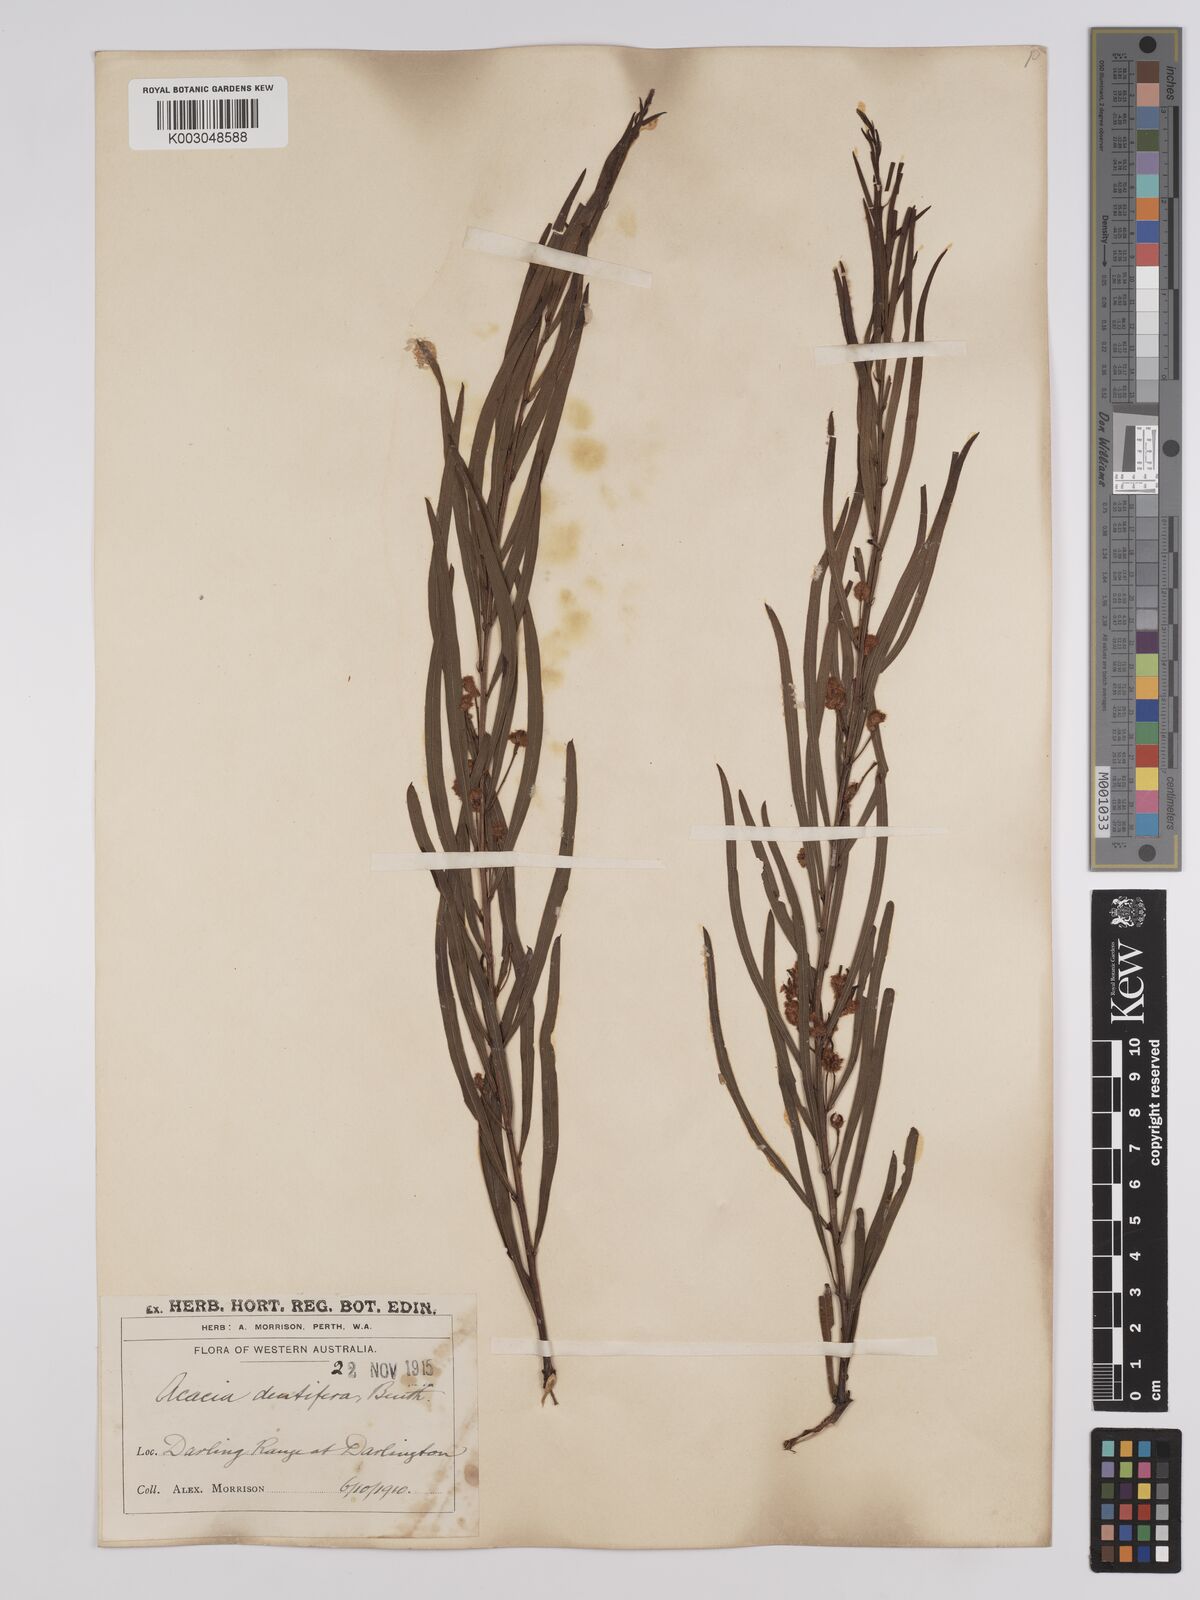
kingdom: Plantae
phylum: Tracheophyta
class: Magnoliopsida
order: Fabales
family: Fabaceae
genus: Acacia
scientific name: Acacia dentifera
